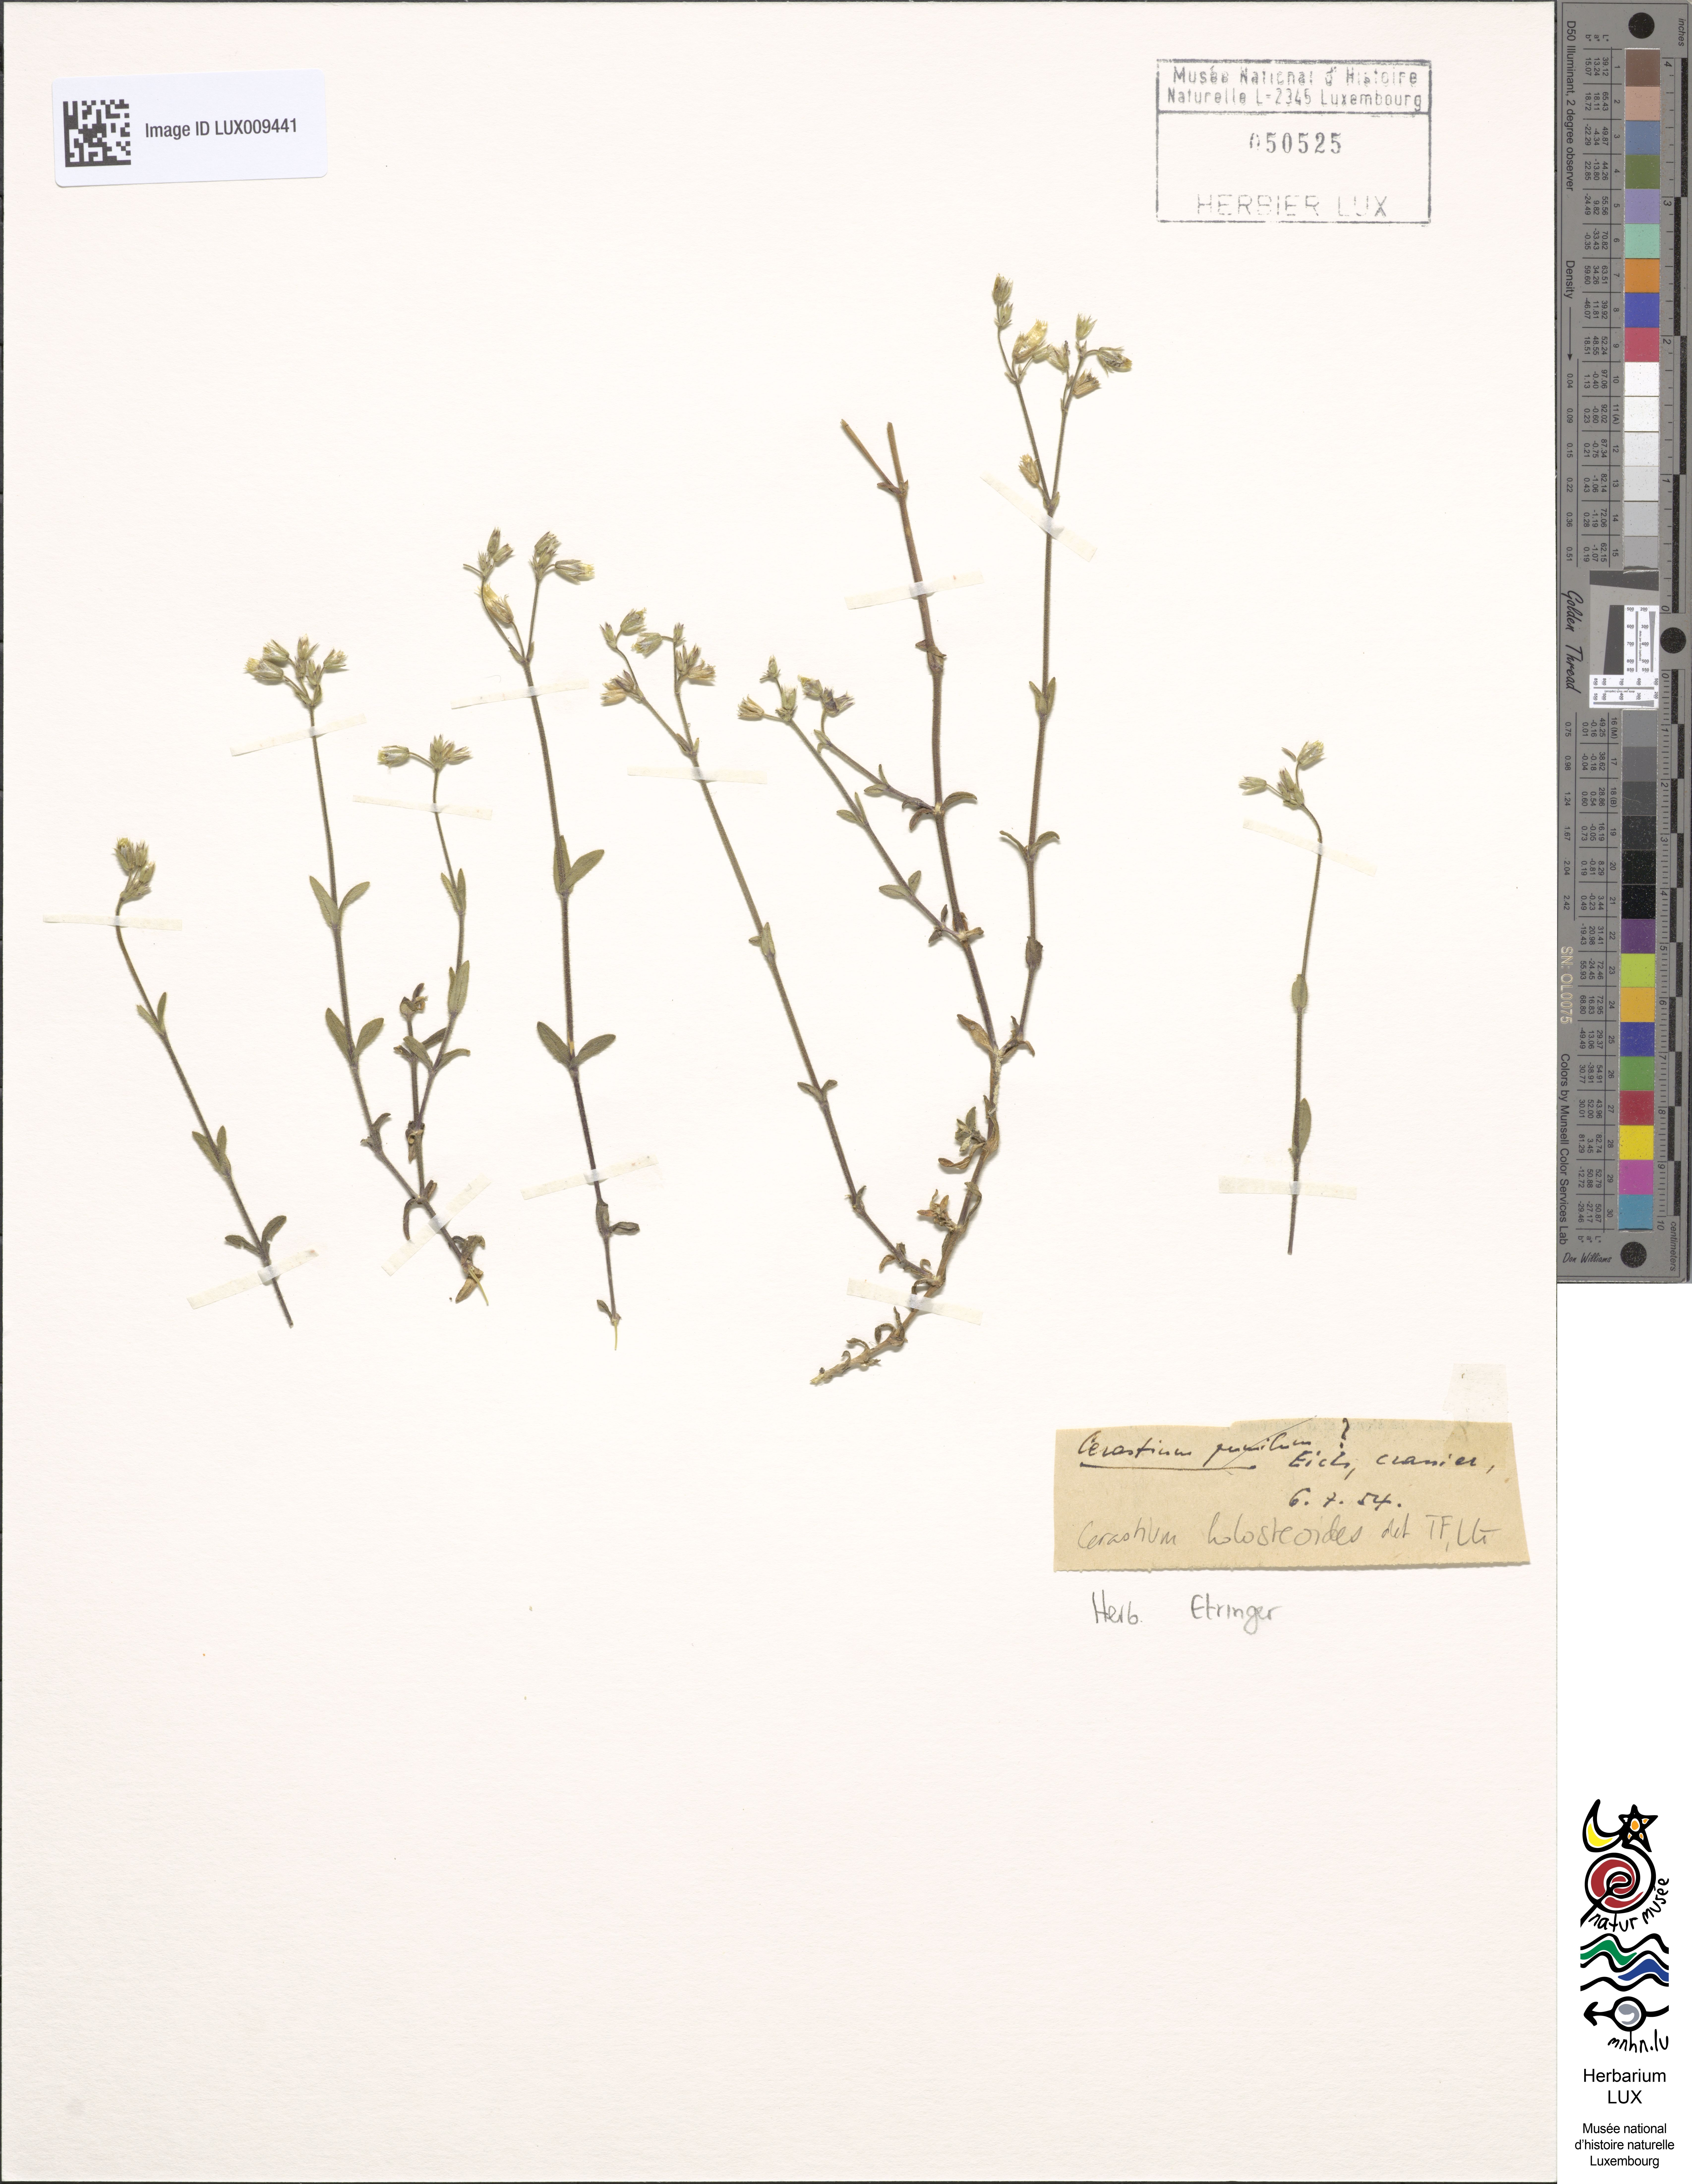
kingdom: Plantae
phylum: Tracheophyta
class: Magnoliopsida
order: Caryophyllales
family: Caryophyllaceae
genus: Cerastium
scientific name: Cerastium holosteoides
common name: Big chickweed
